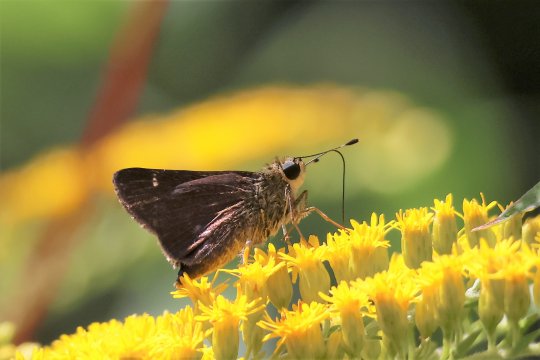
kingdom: Animalia
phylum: Arthropoda
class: Insecta
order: Lepidoptera
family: Hesperiidae
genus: Vernia
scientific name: Vernia verna
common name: Little Glassywing
